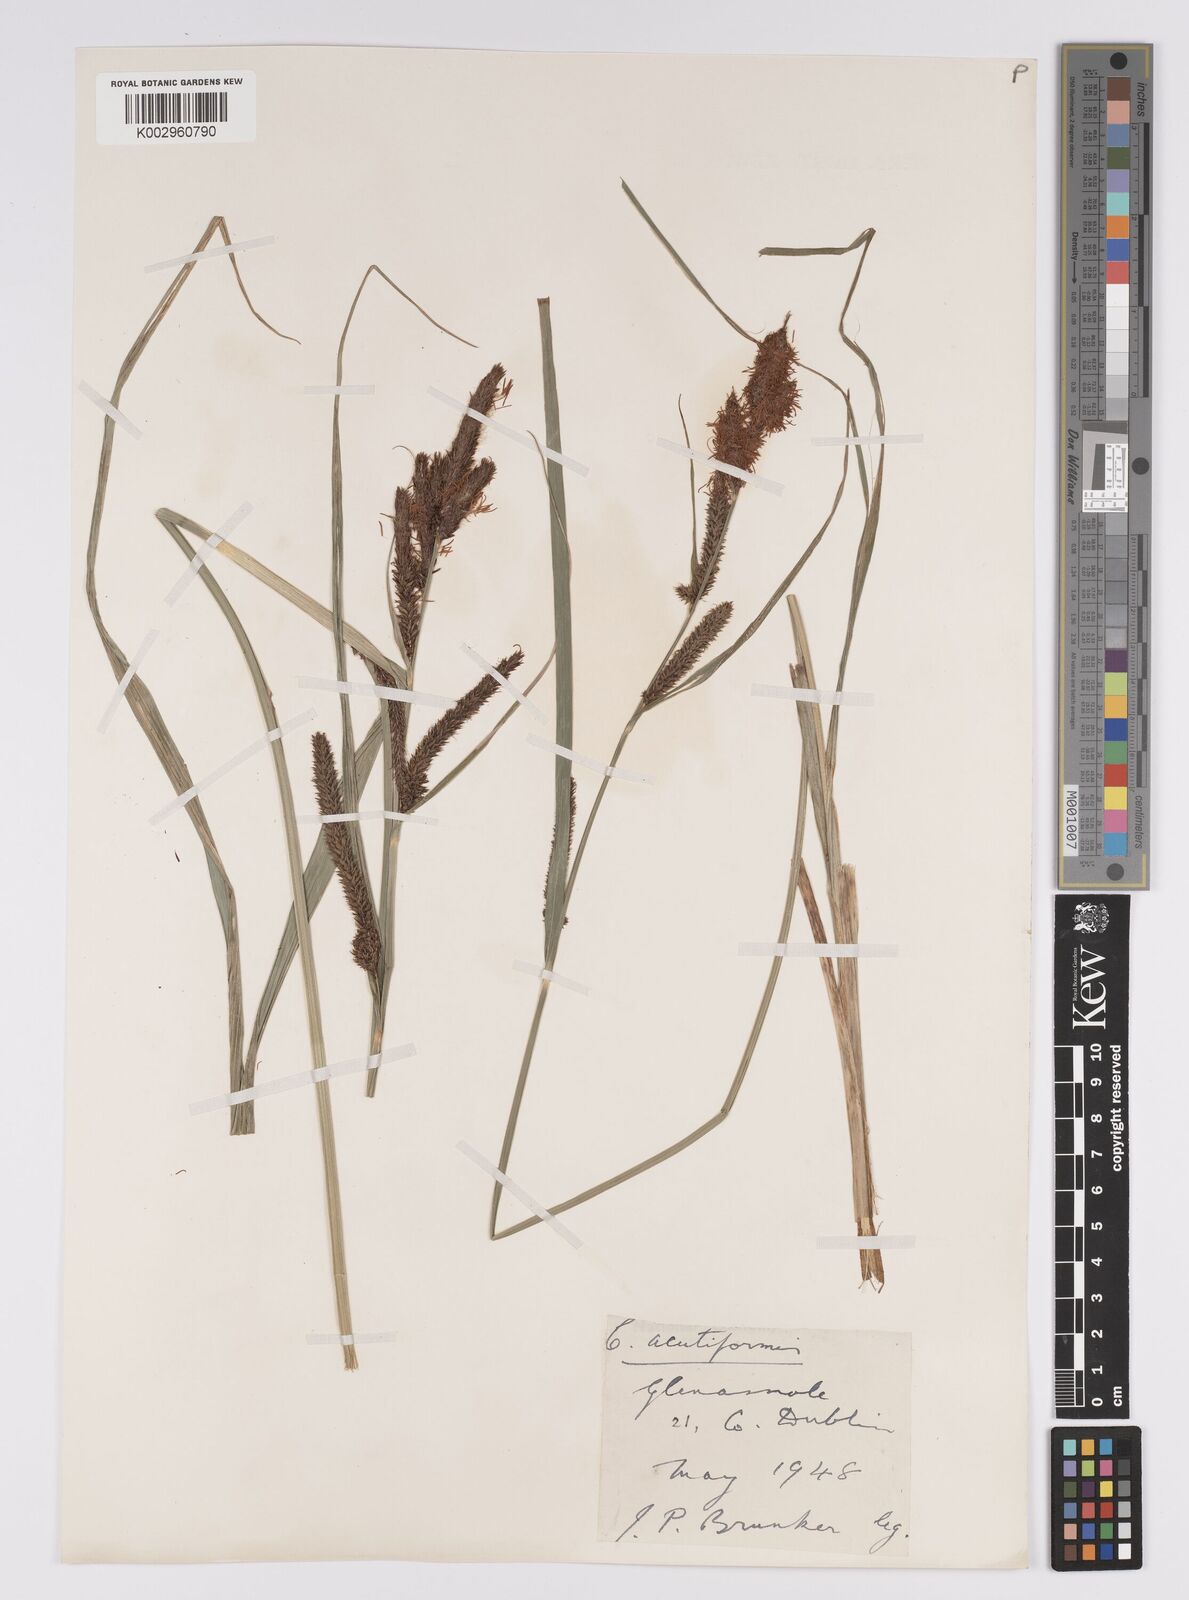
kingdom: Plantae
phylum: Tracheophyta
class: Liliopsida
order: Poales
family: Cyperaceae
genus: Carex
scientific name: Carex acutiformis
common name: Lesser pond-sedge
